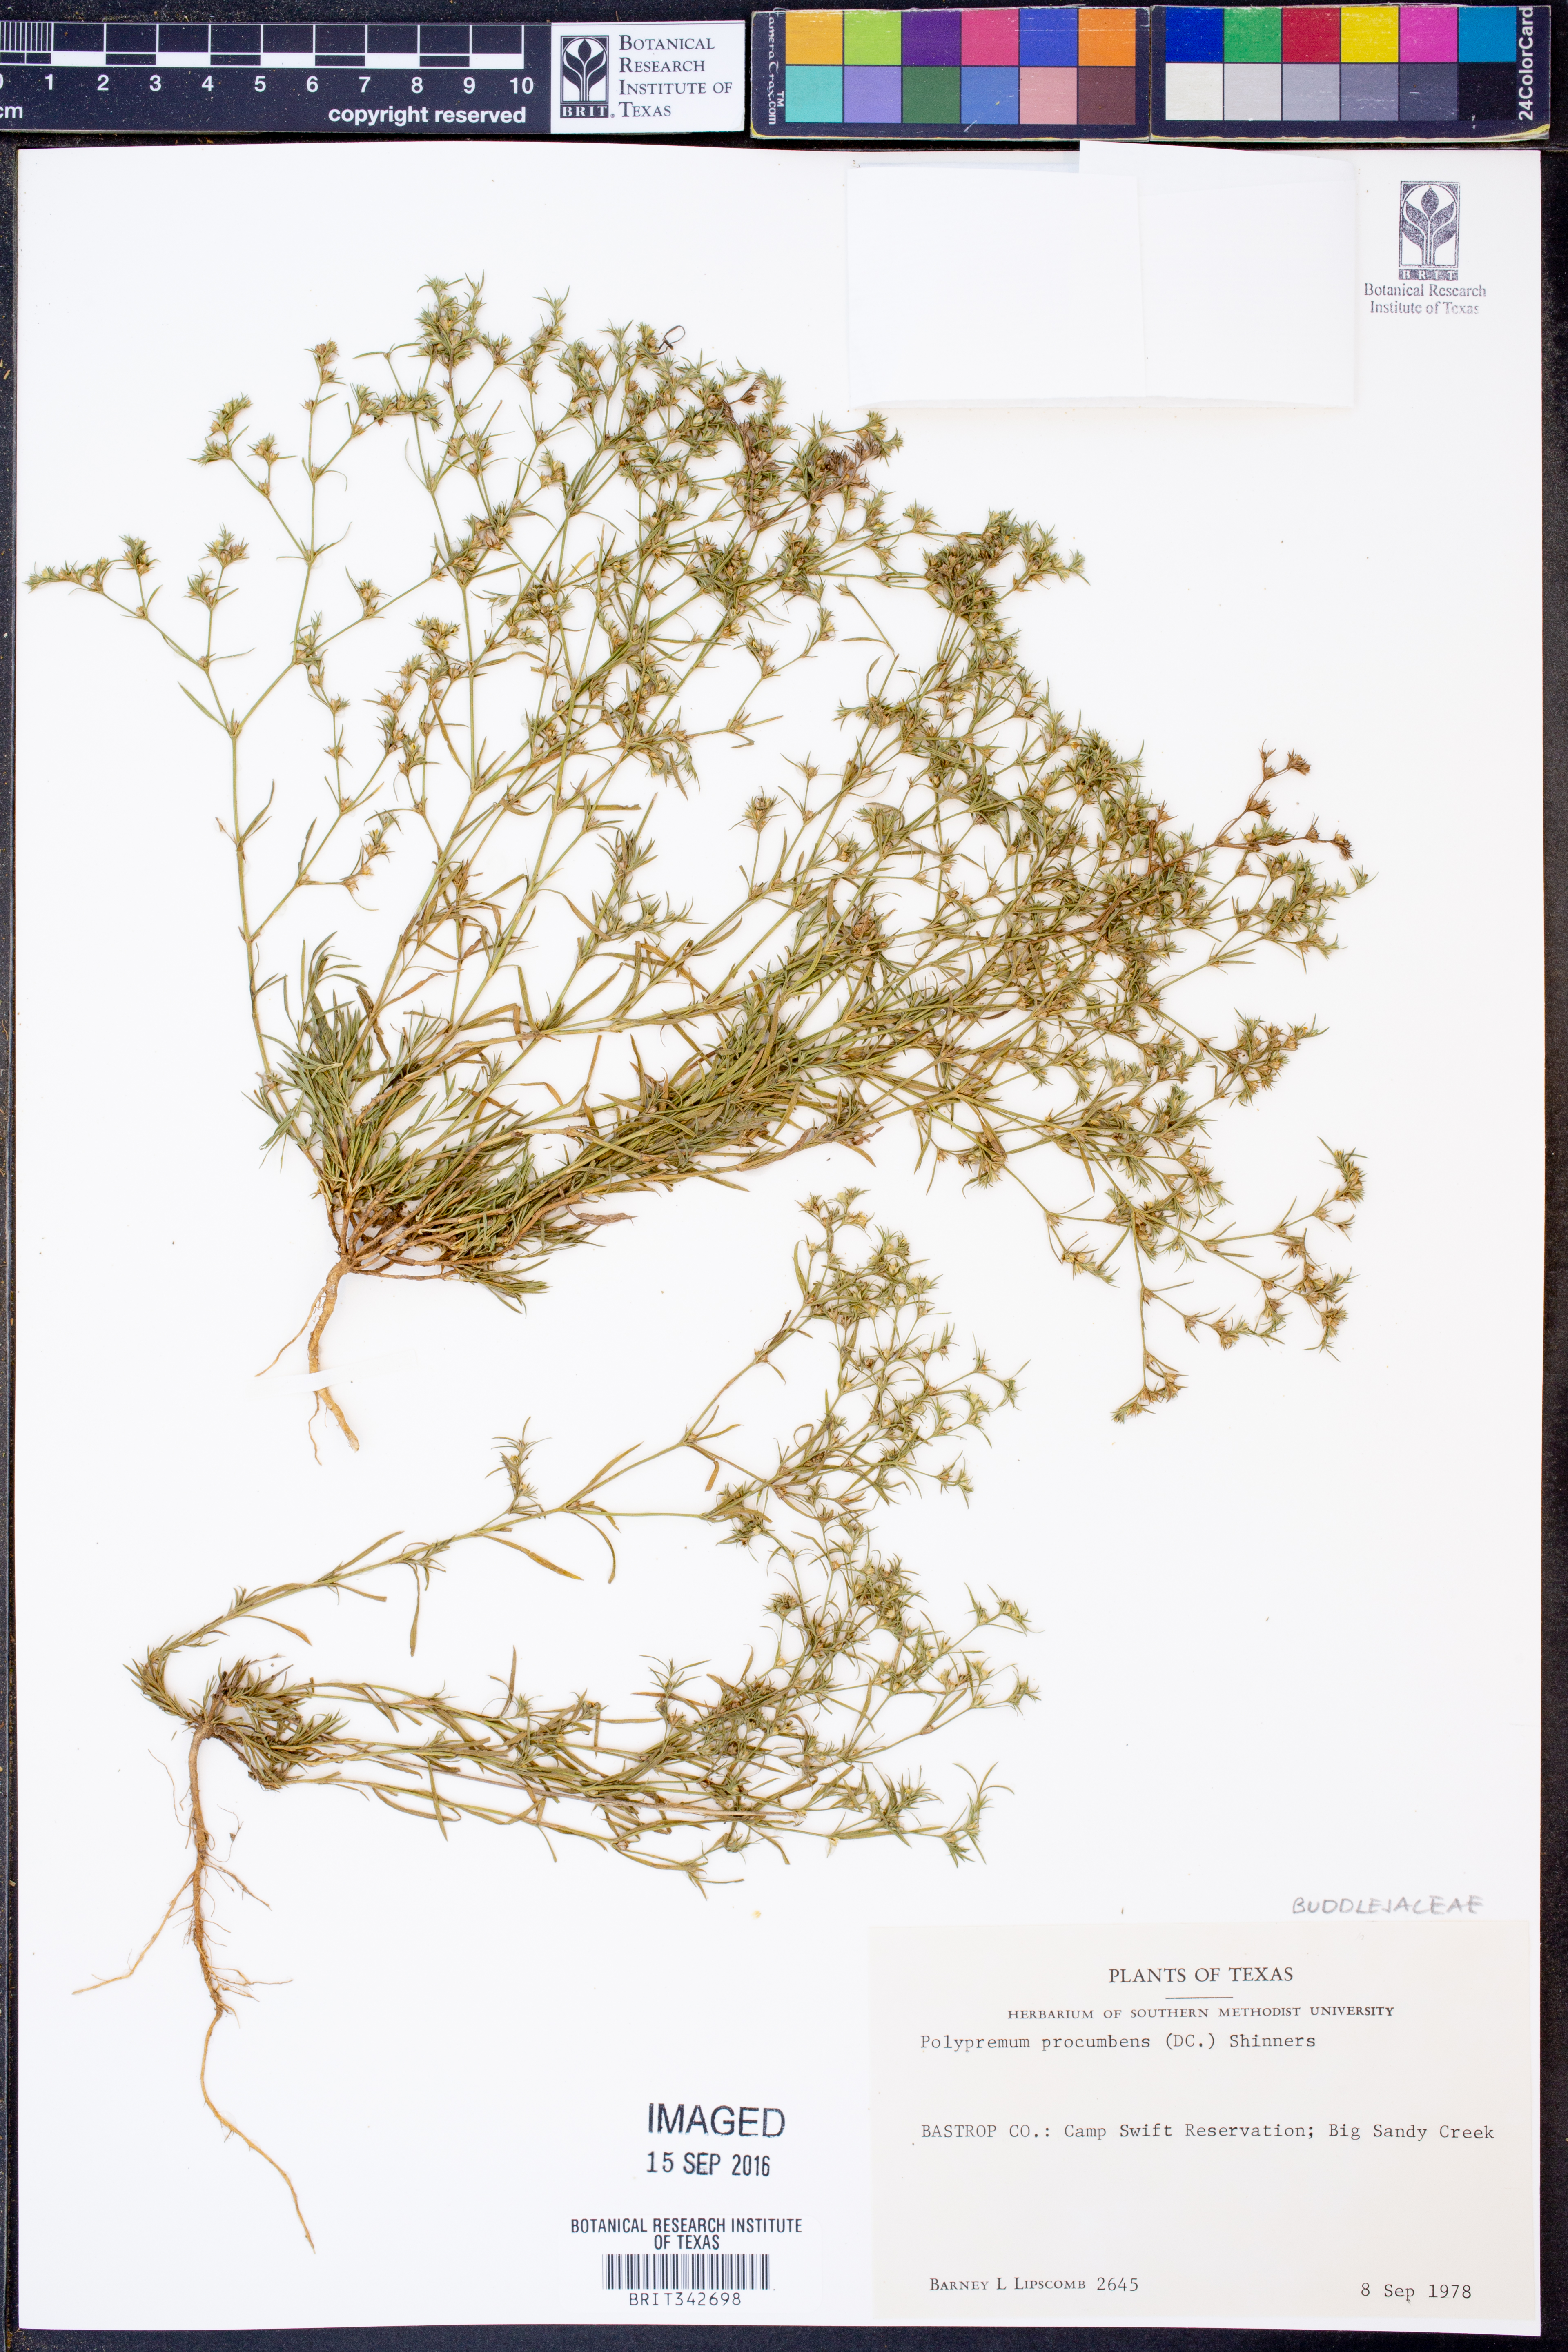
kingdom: Plantae
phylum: Tracheophyta
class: Magnoliopsida
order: Lamiales
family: Tetrachondraceae
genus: Polypremum
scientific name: Polypremum procumbens
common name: Juniper-leaf
